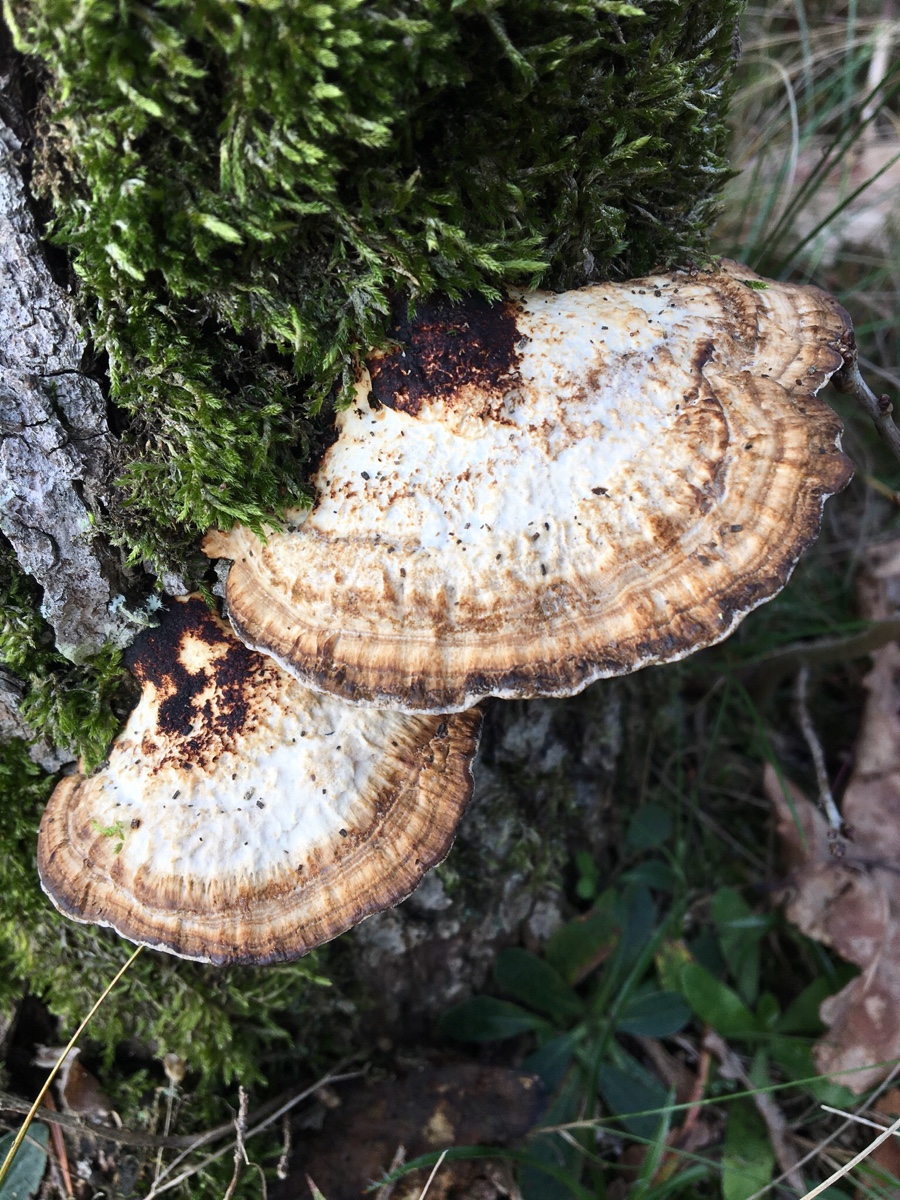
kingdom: Fungi
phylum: Basidiomycota
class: Agaricomycetes
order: Polyporales
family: Polyporaceae
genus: Daedaleopsis
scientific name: Daedaleopsis confragosa
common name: rødmende læderporesvamp
